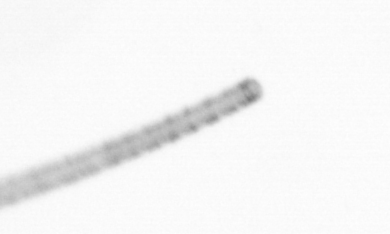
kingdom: Chromista
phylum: Ochrophyta
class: Bacillariophyceae
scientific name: Bacillariophyceae
